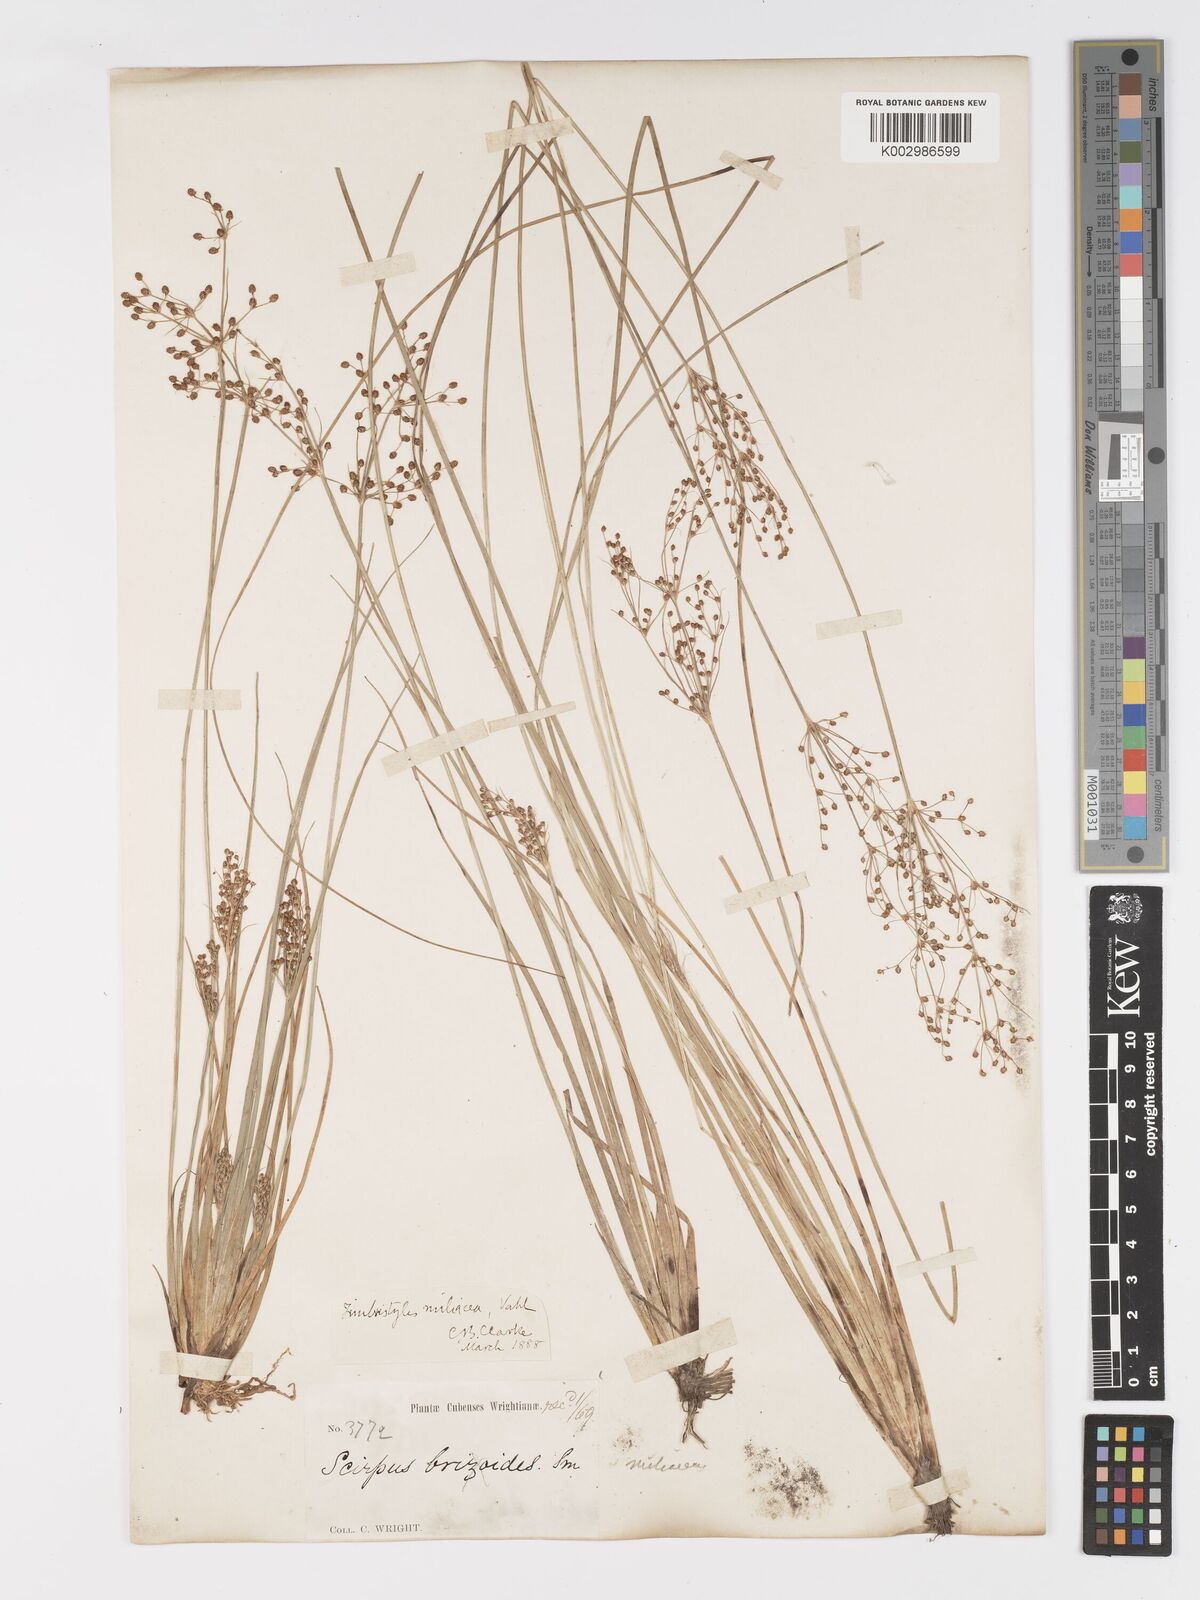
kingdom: Plantae
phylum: Tracheophyta
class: Liliopsida
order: Poales
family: Cyperaceae
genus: Fimbristylis
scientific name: Fimbristylis littoralis
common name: Fimbry
